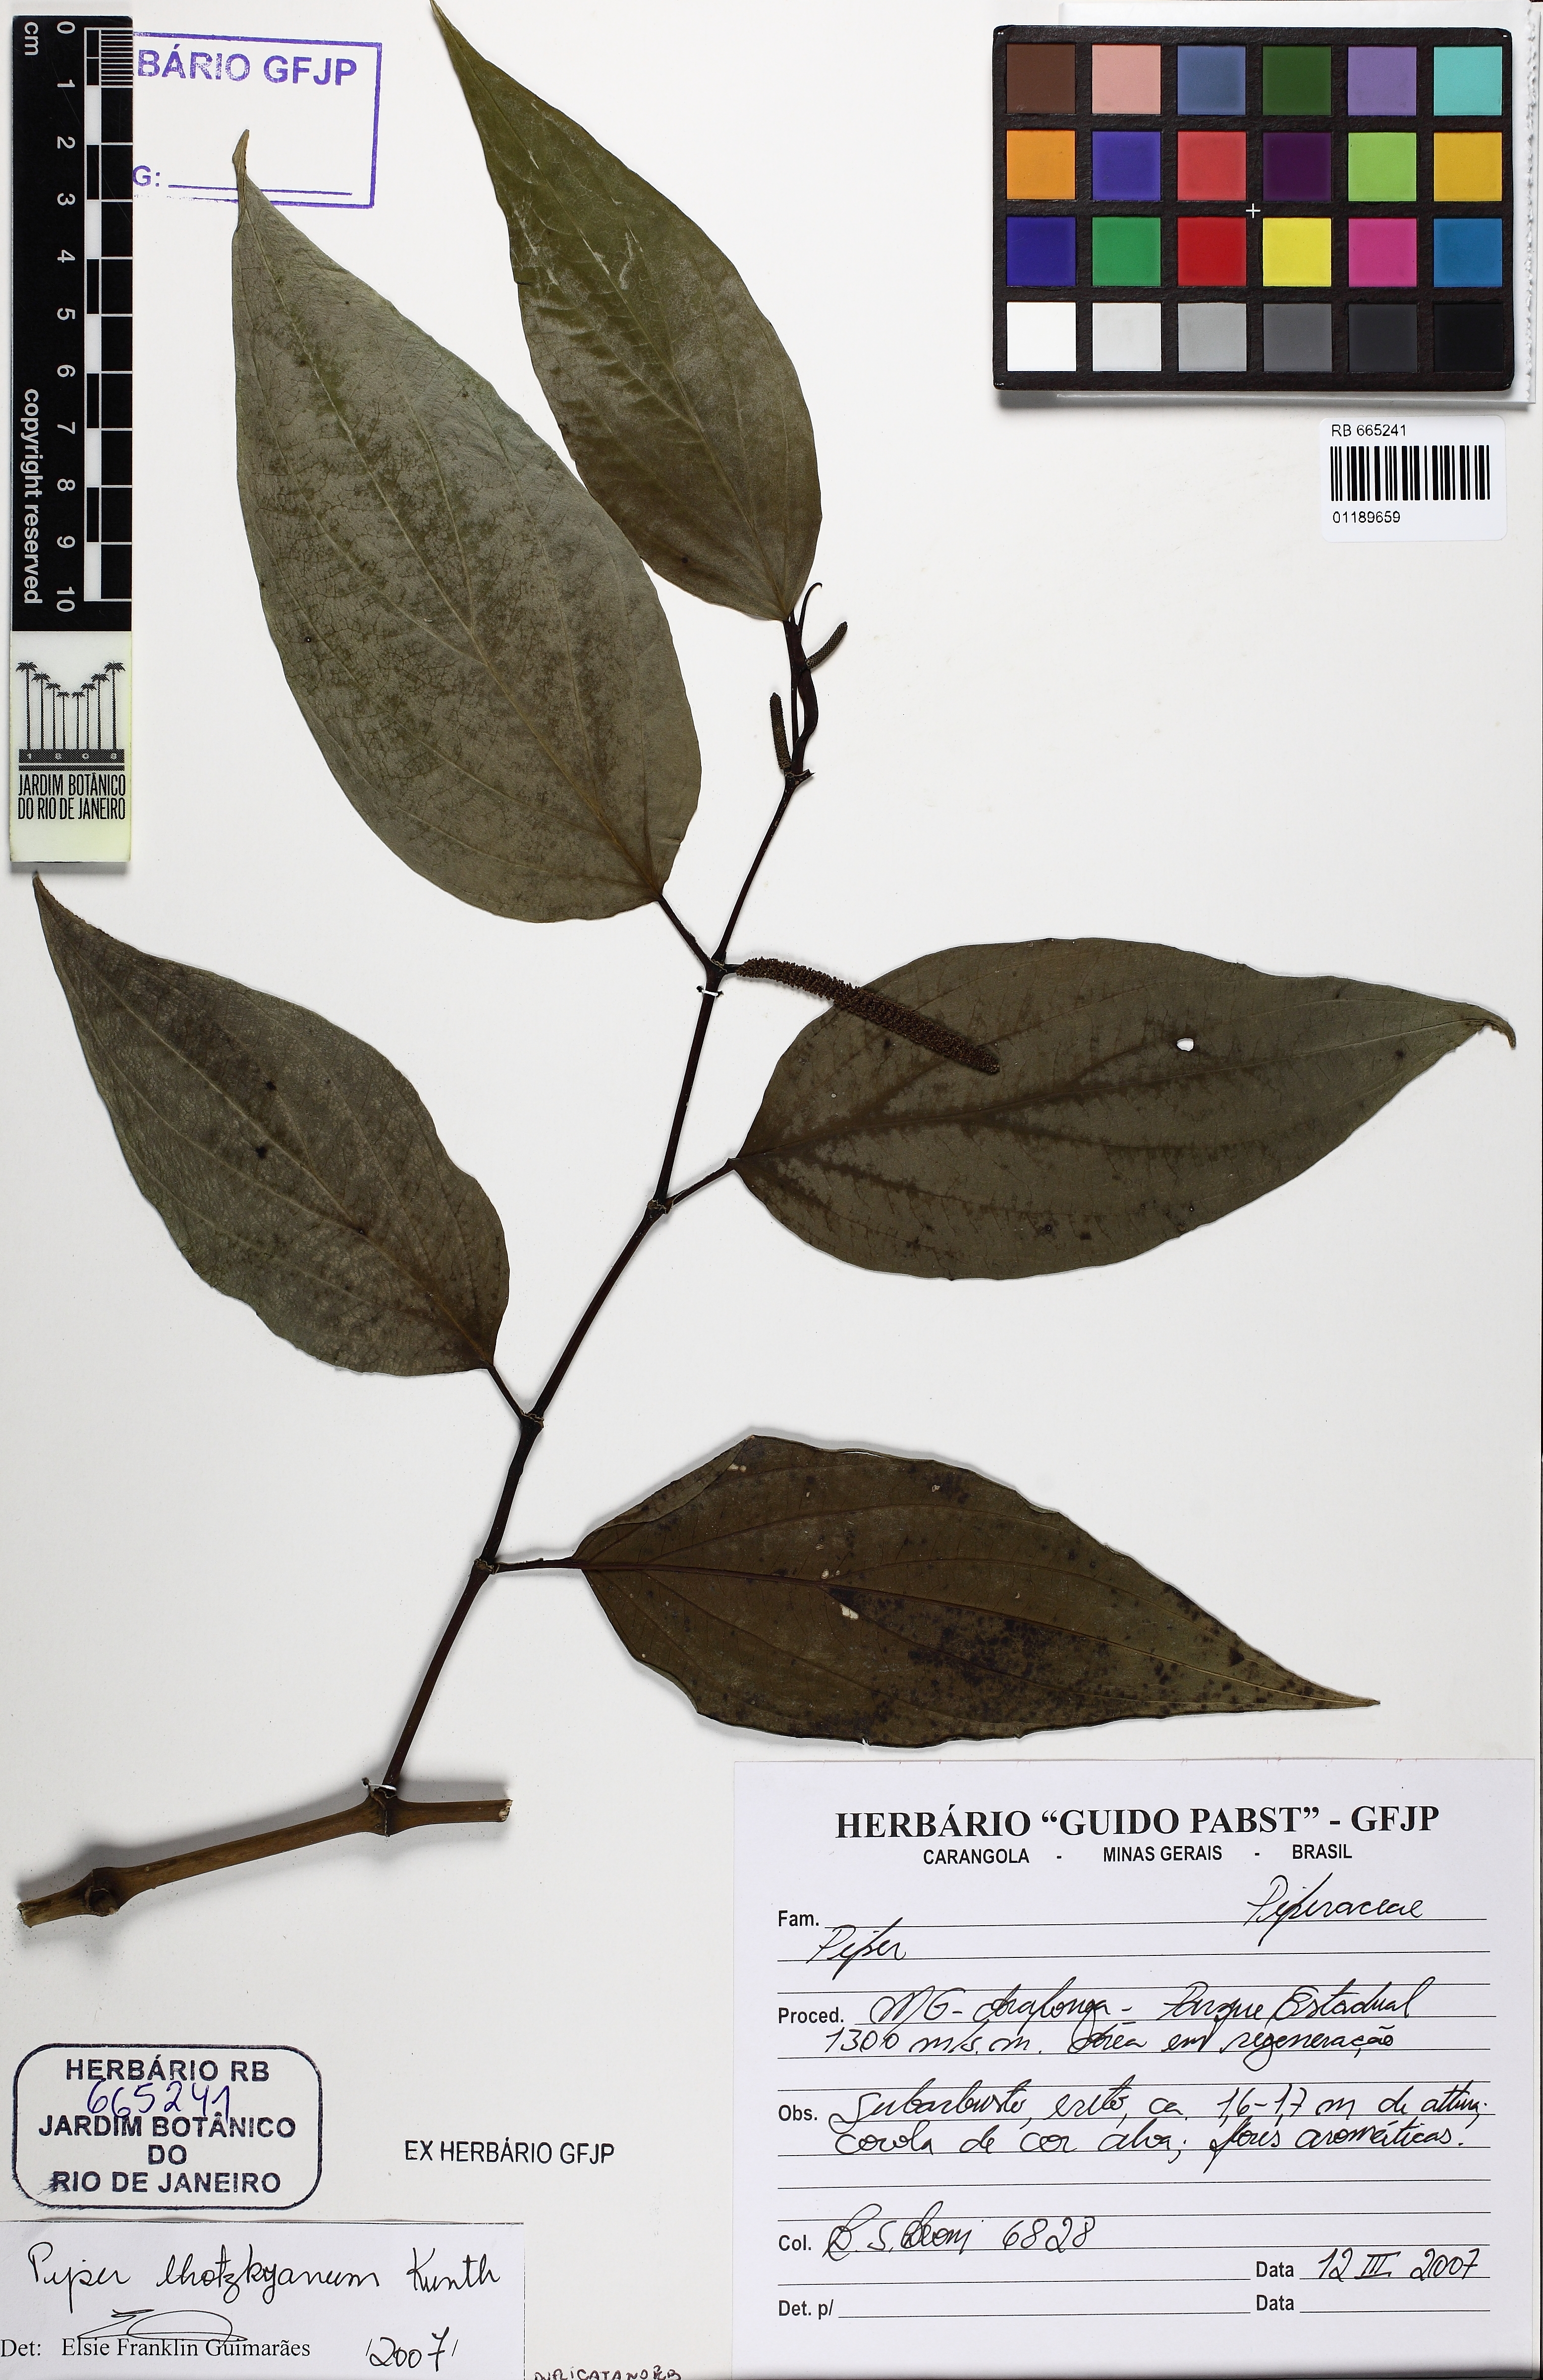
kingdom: Plantae
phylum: Tracheophyta
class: Magnoliopsida
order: Piperales
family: Piperaceae
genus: Piper
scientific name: Piper lhotzkyanum
